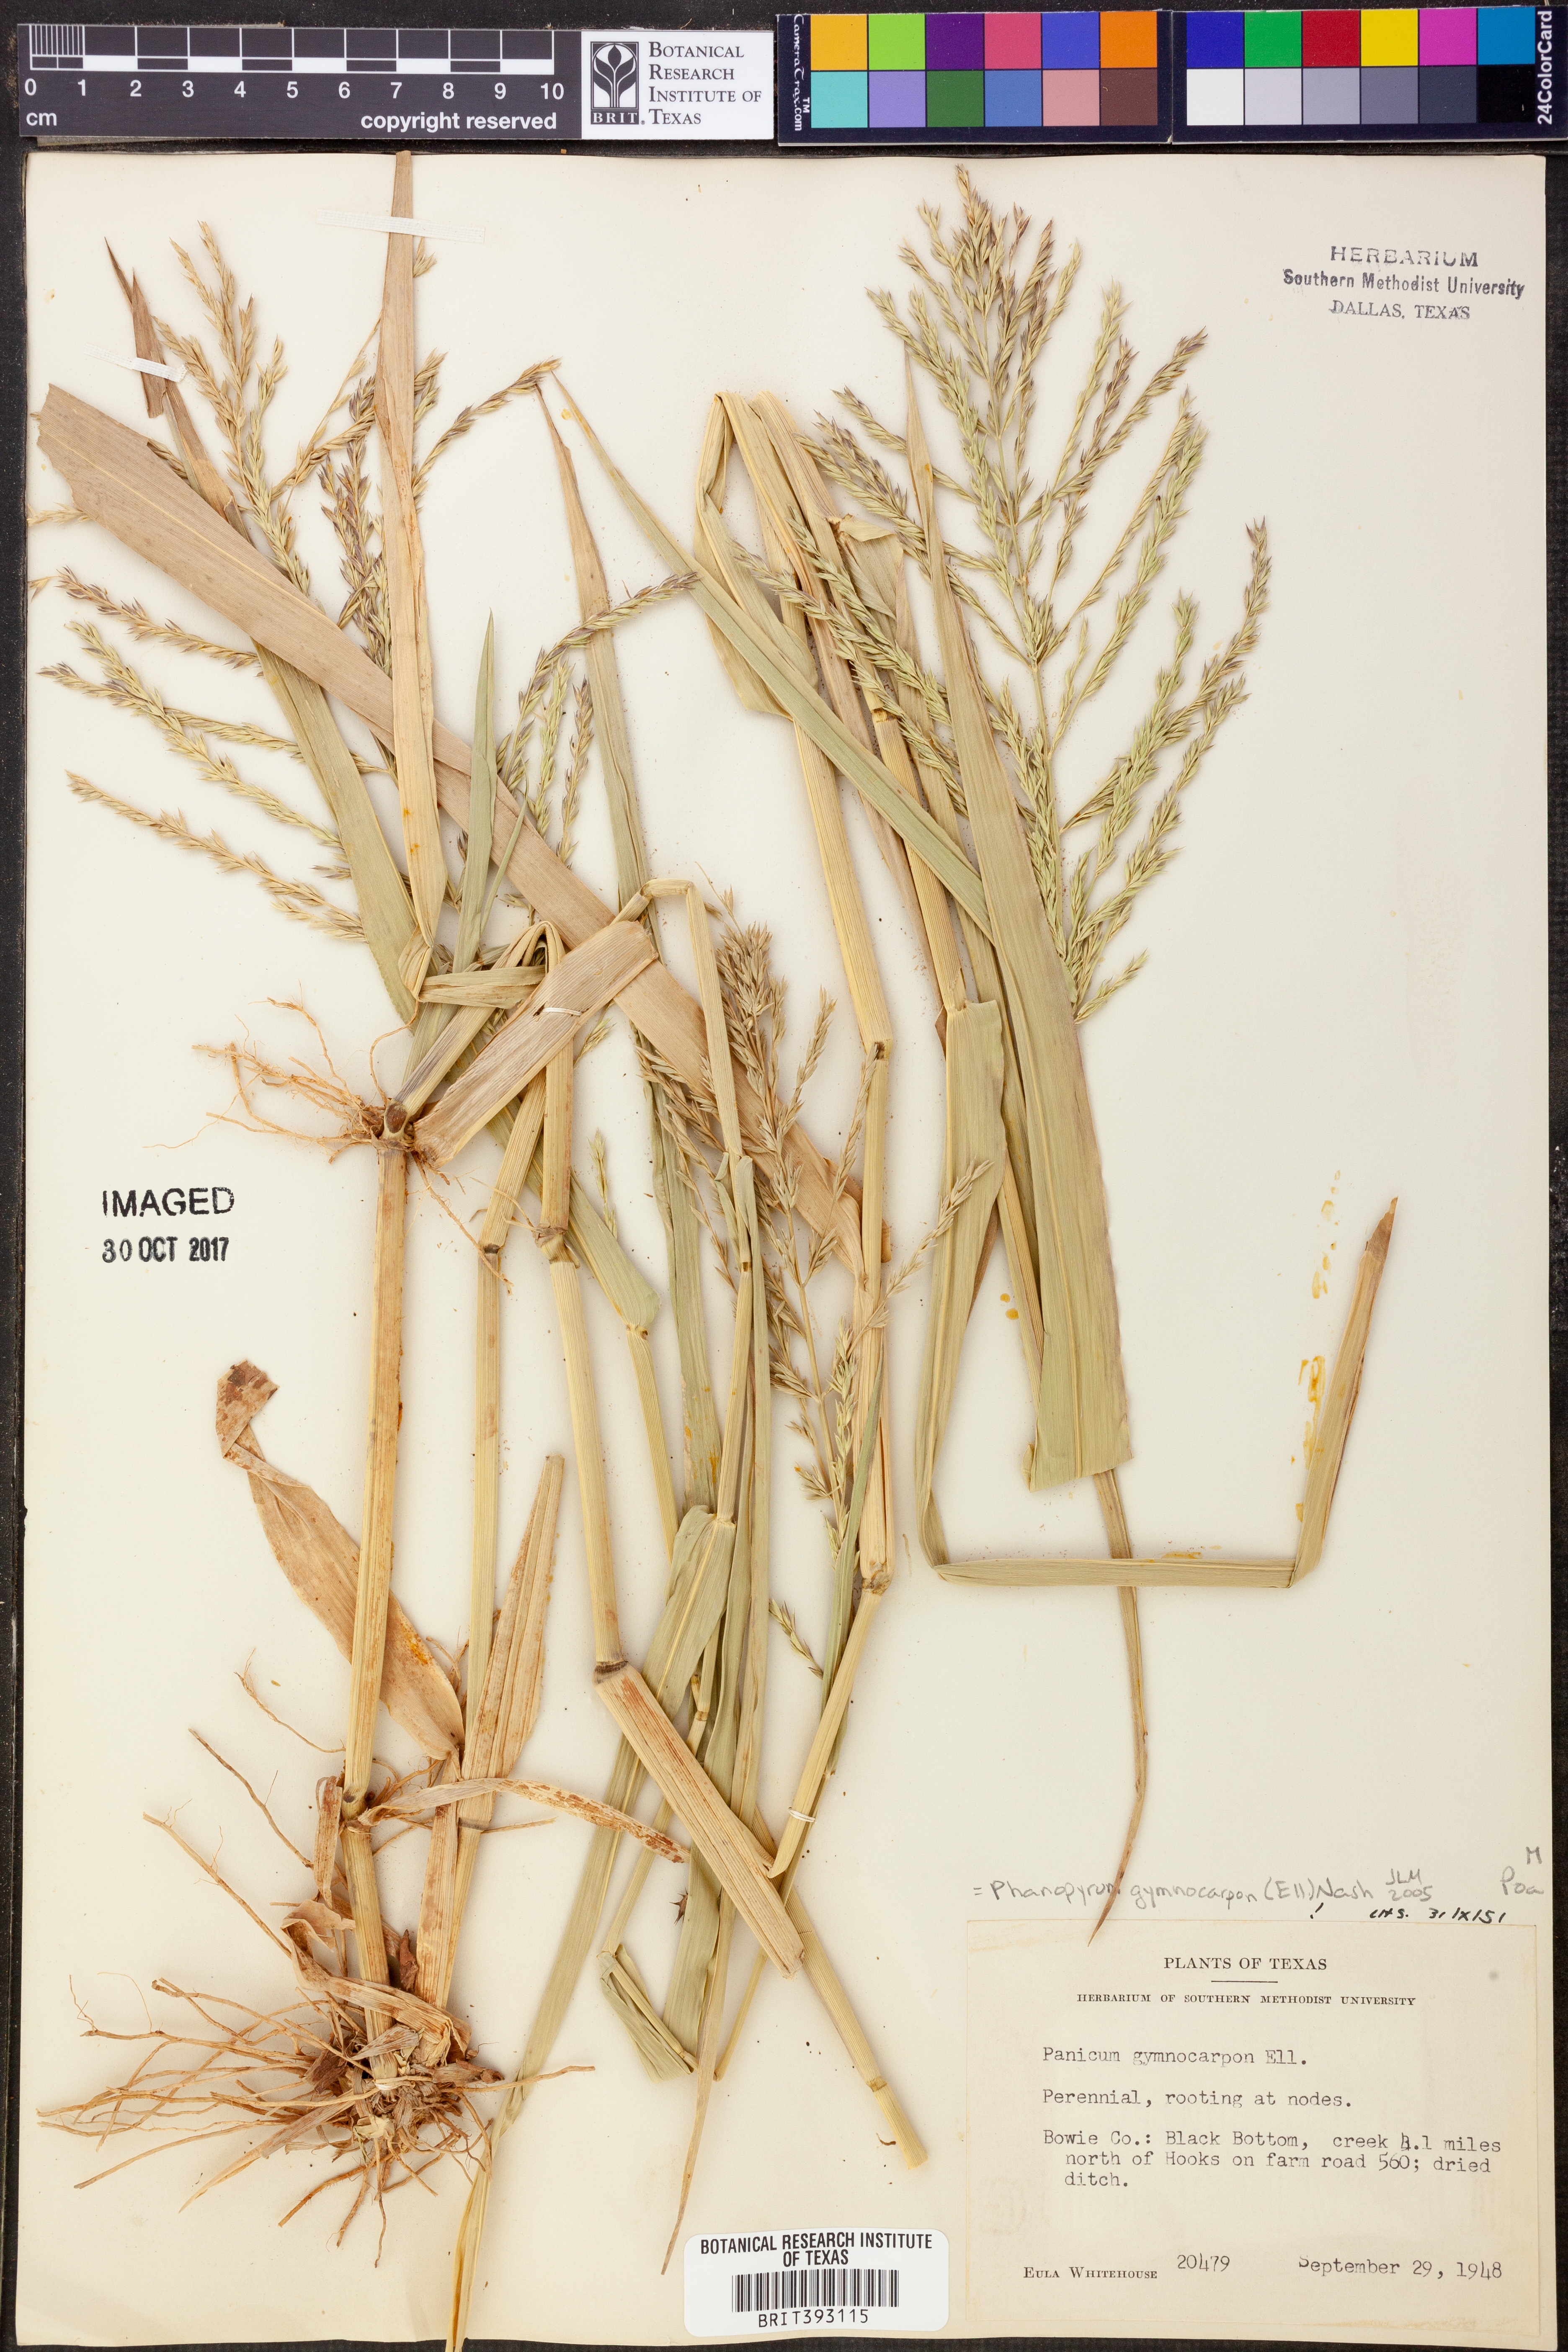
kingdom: Plantae
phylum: Tracheophyta
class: Liliopsida
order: Poales
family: Poaceae
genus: Panicum
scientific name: Panicum gymnocarpon
